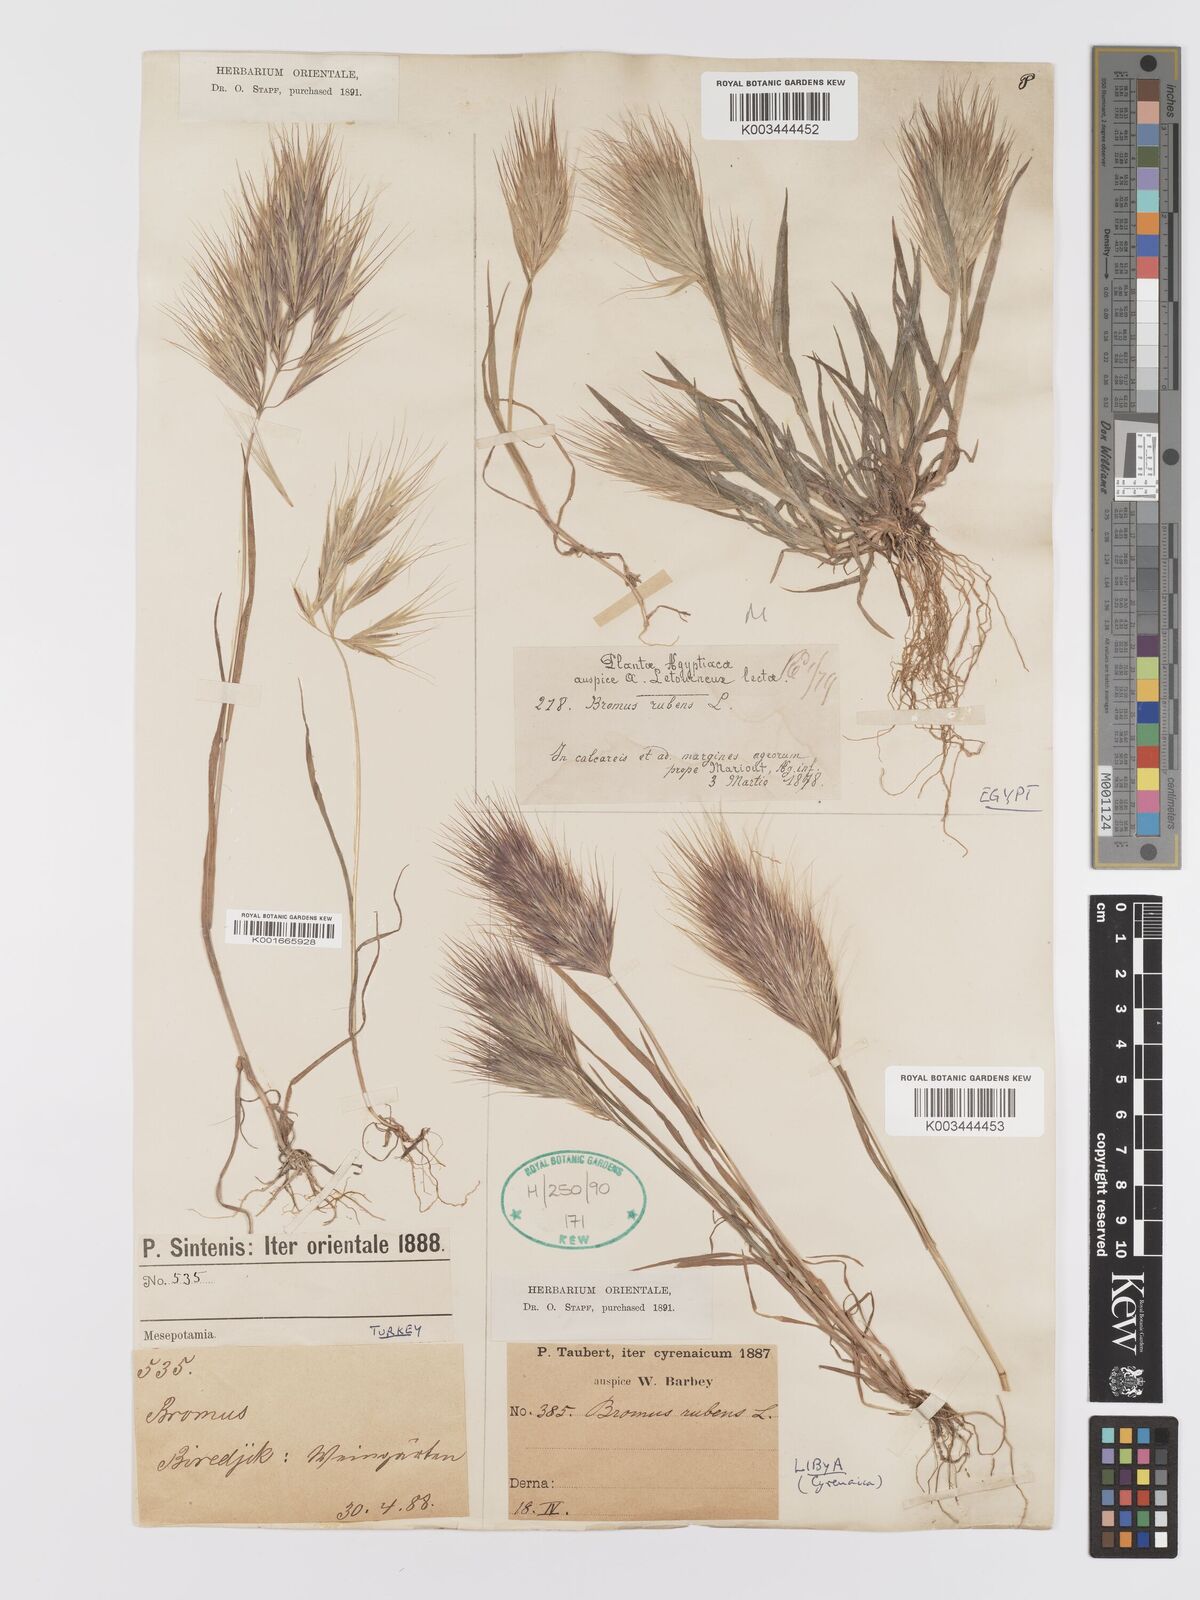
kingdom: Plantae
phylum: Tracheophyta
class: Liliopsida
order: Poales
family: Poaceae
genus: Bromus
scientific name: Bromus rubens
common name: Red brome
